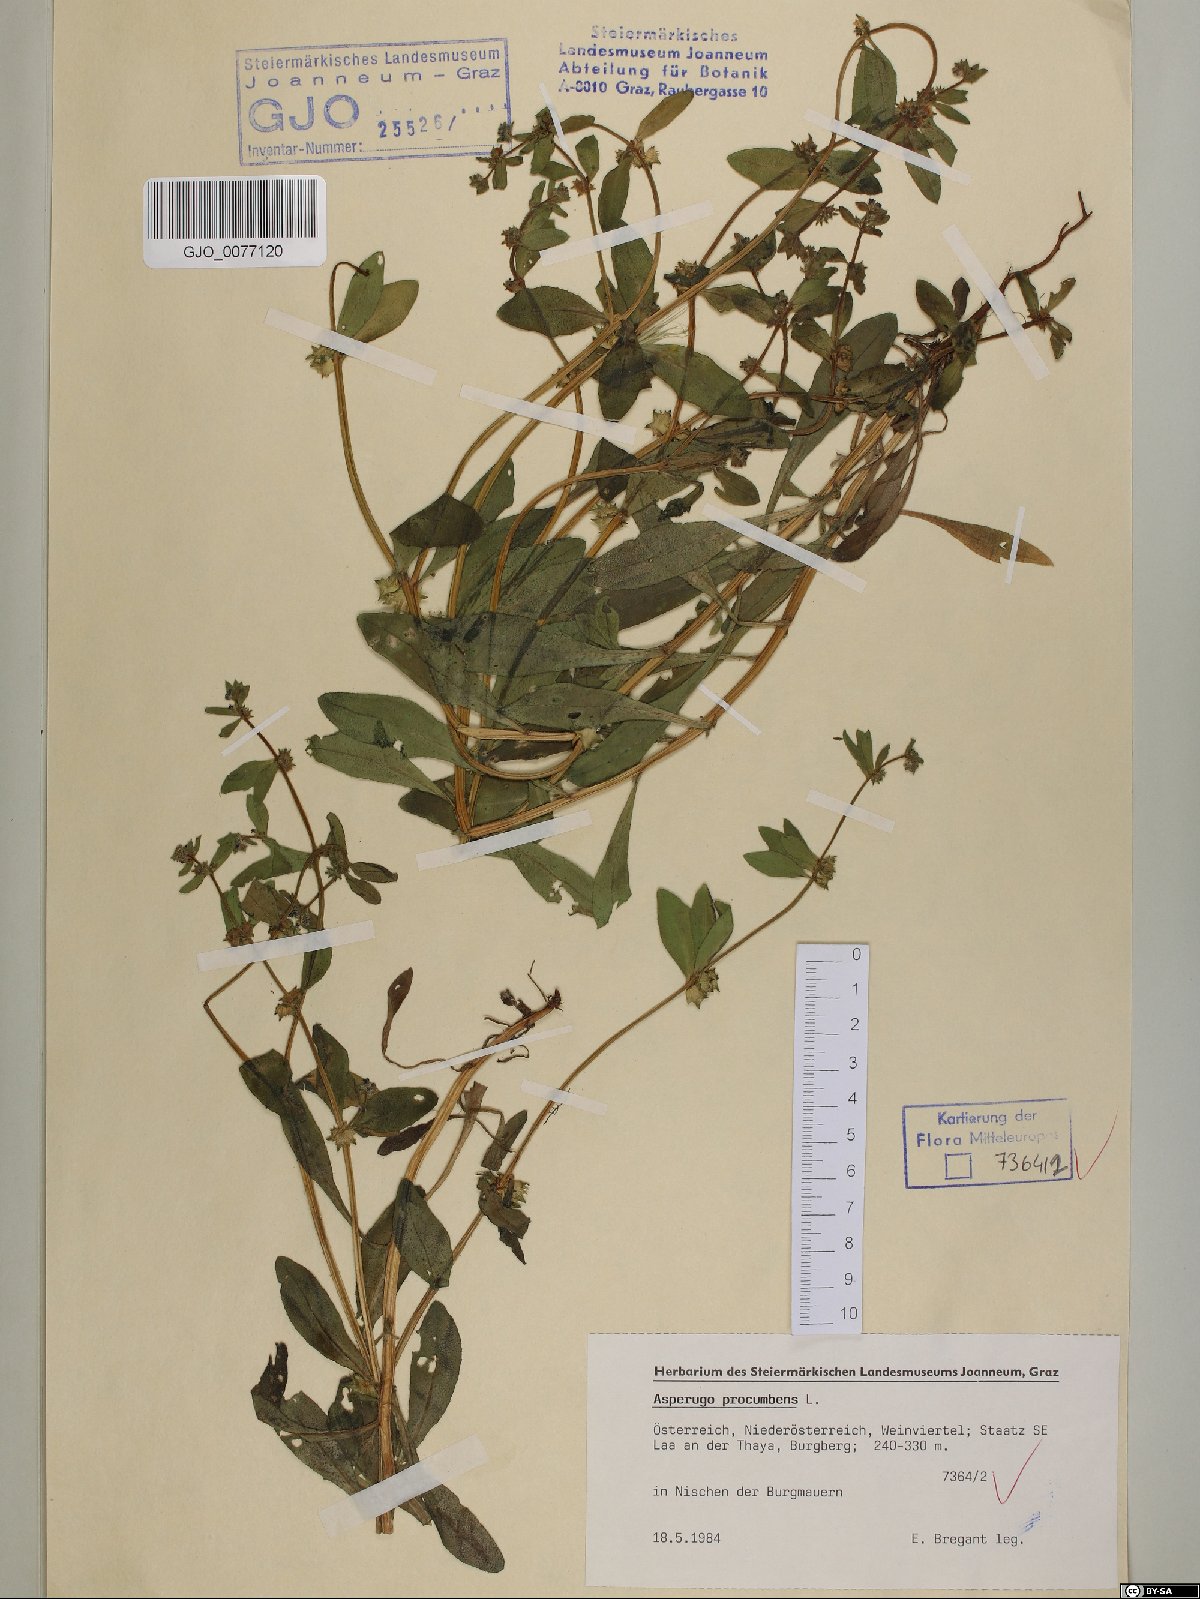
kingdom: Plantae
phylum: Tracheophyta
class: Magnoliopsida
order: Boraginales
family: Boraginaceae
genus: Asperugo
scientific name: Asperugo procumbens
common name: Madwort
